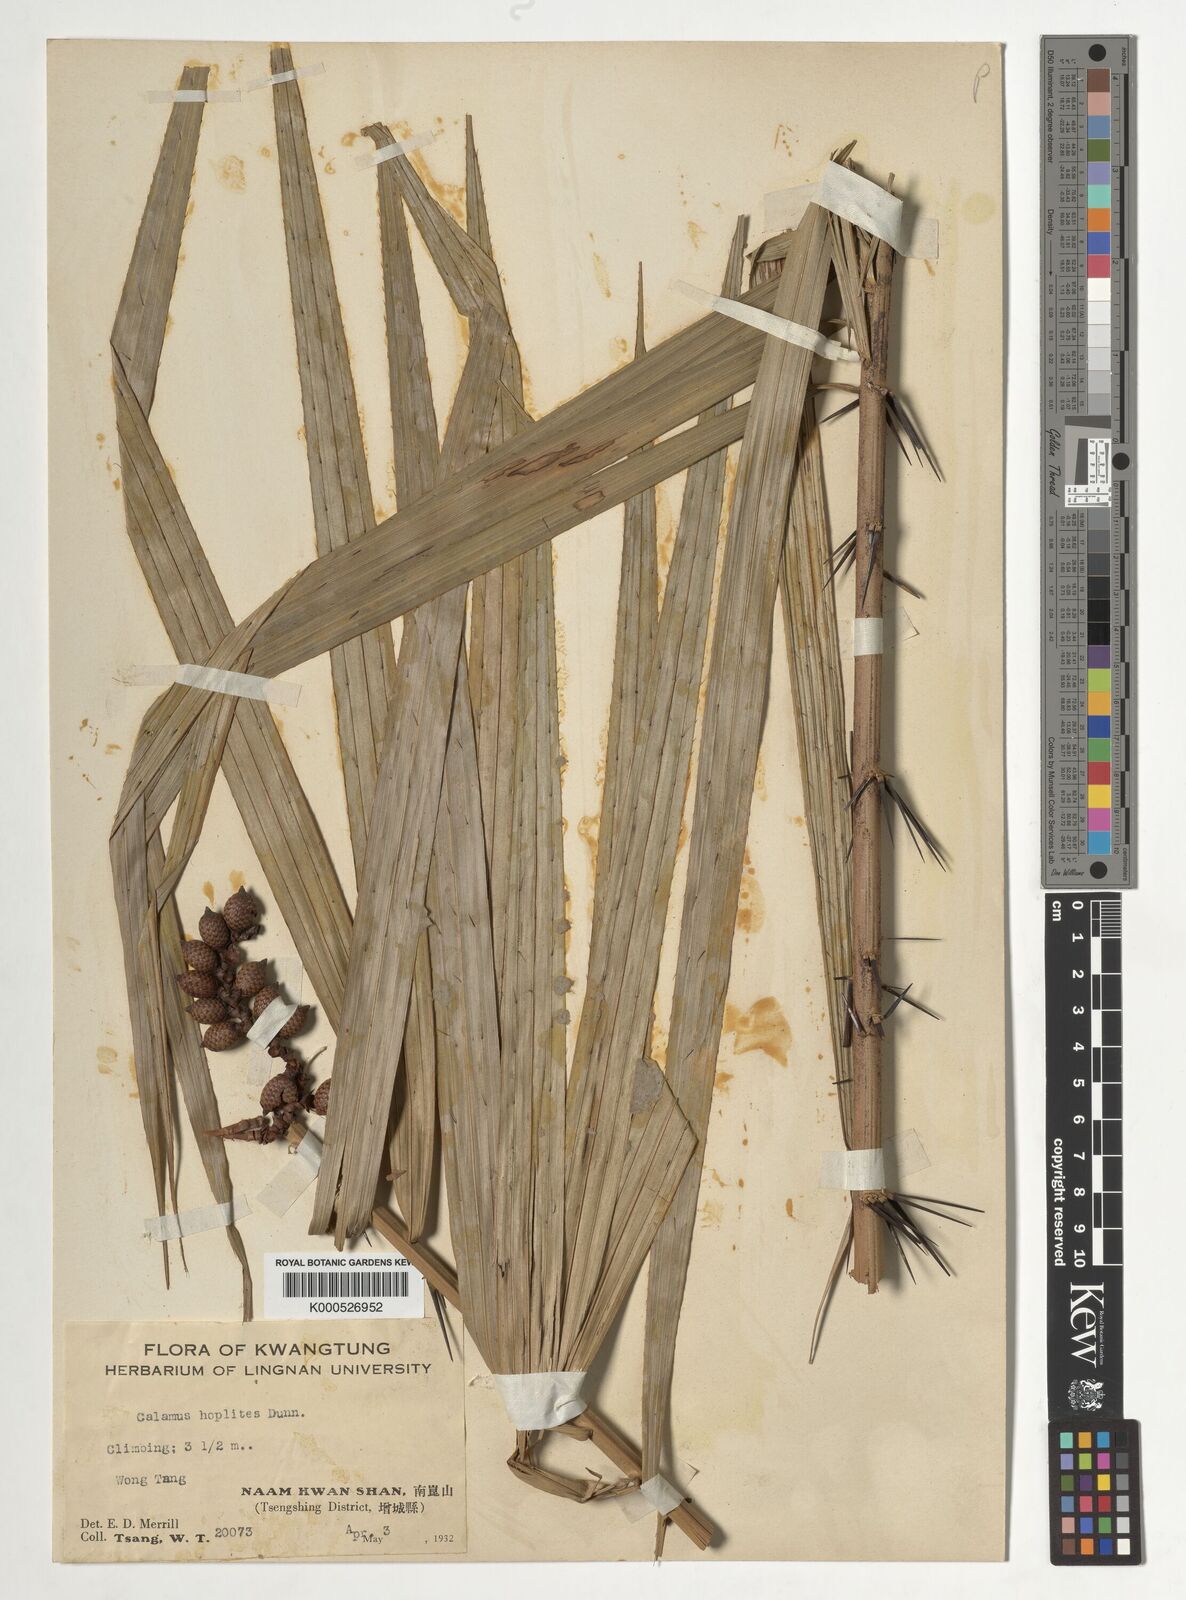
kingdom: Plantae
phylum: Tracheophyta
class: Liliopsida
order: Arecales
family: Arecaceae
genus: Calamus
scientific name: Calamus thysanolepis
